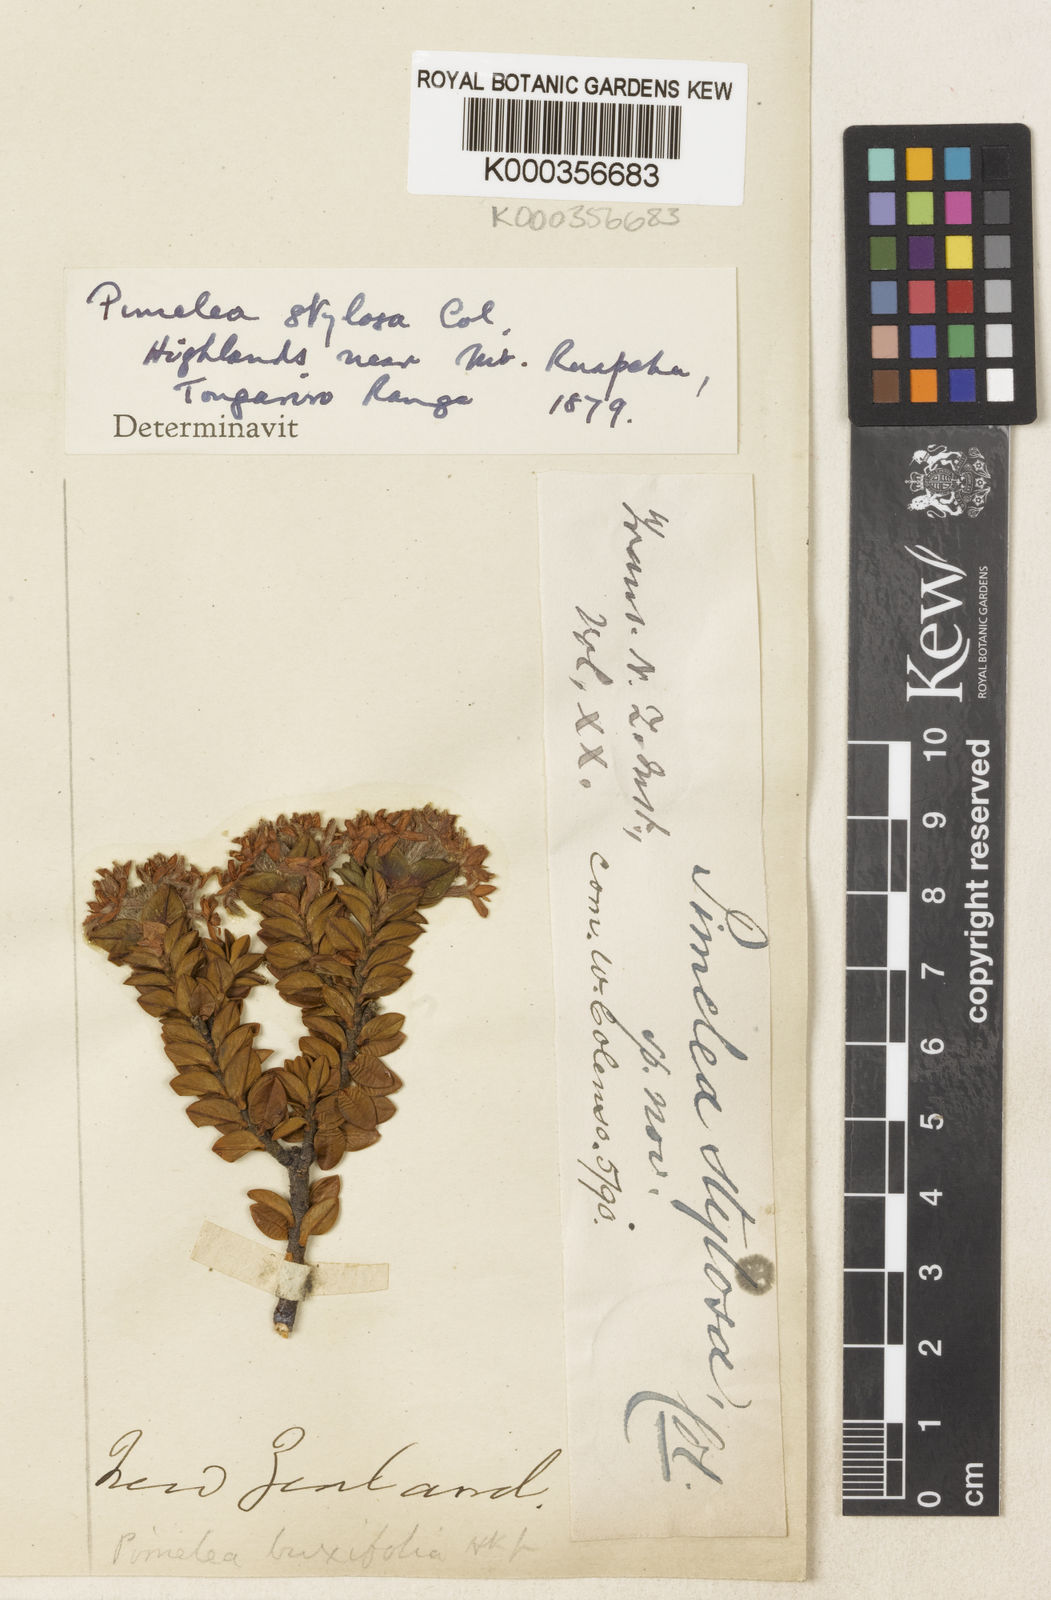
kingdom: Plantae
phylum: Tracheophyta
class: Magnoliopsida
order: Malvales
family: Thymelaeaceae
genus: Pimelea
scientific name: Pimelea buxifolia
